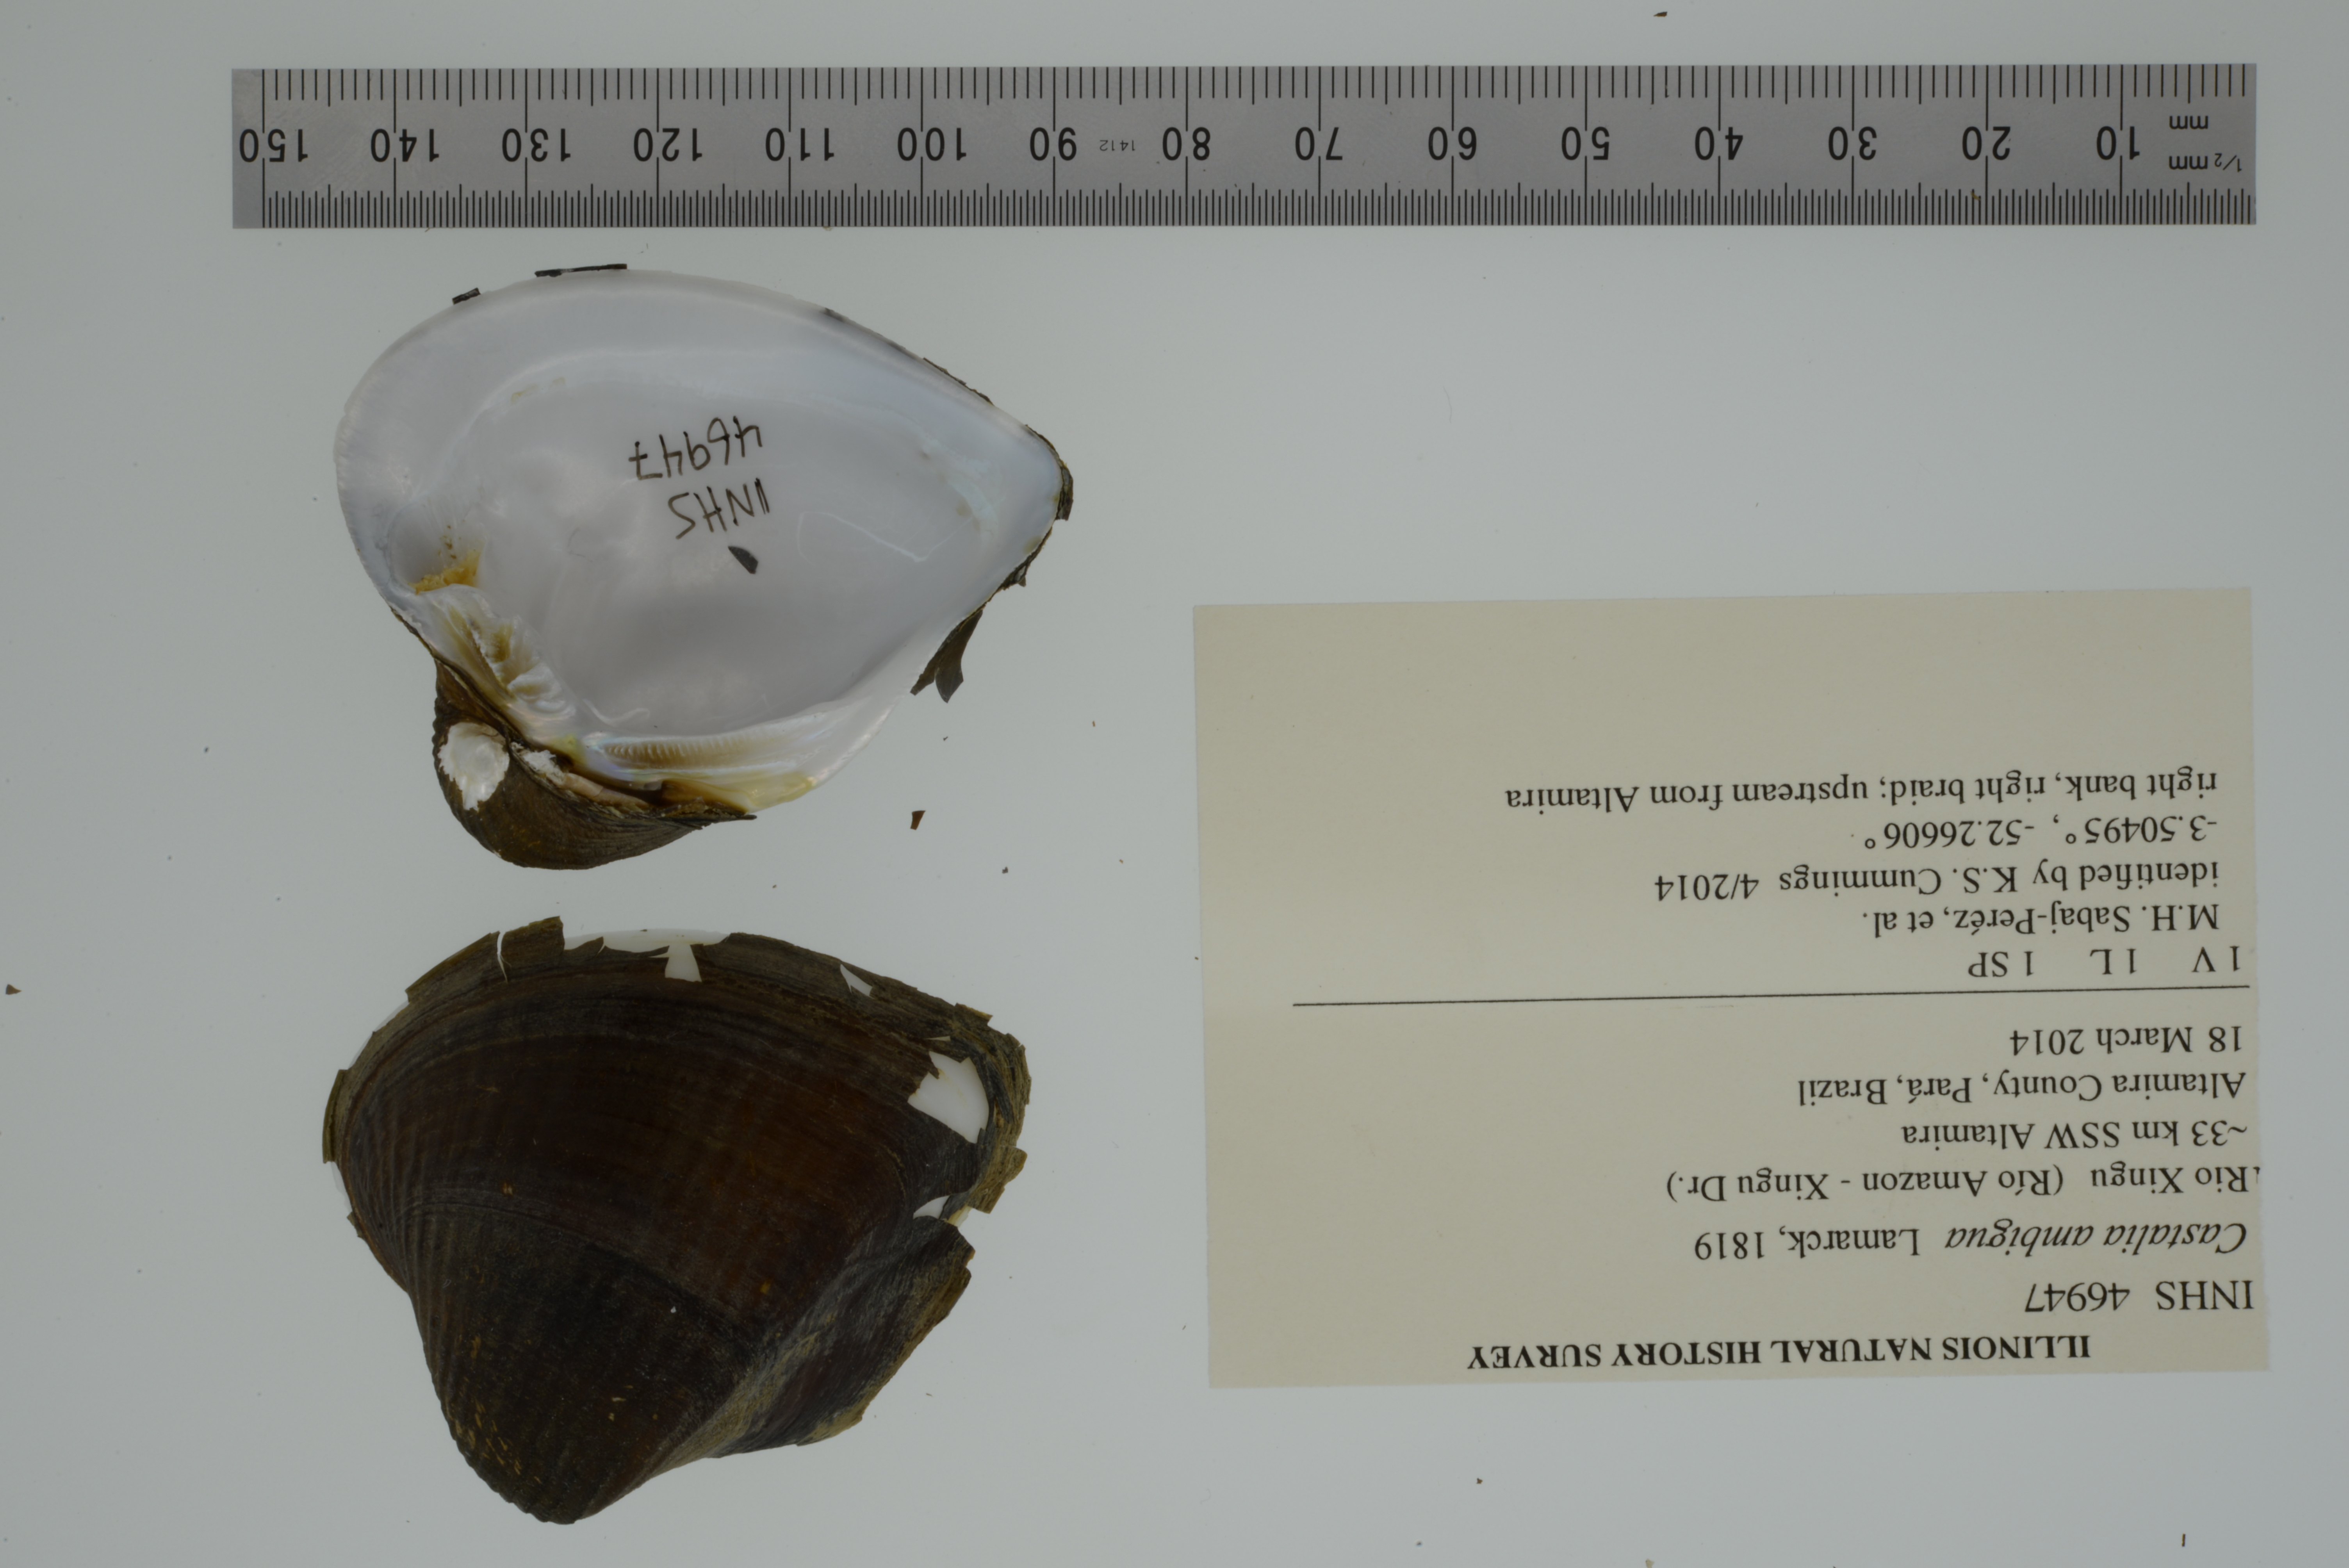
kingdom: Animalia
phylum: Mollusca
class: Bivalvia
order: Unionida
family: Hyriidae
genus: Castalia
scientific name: Castalia ambigua
